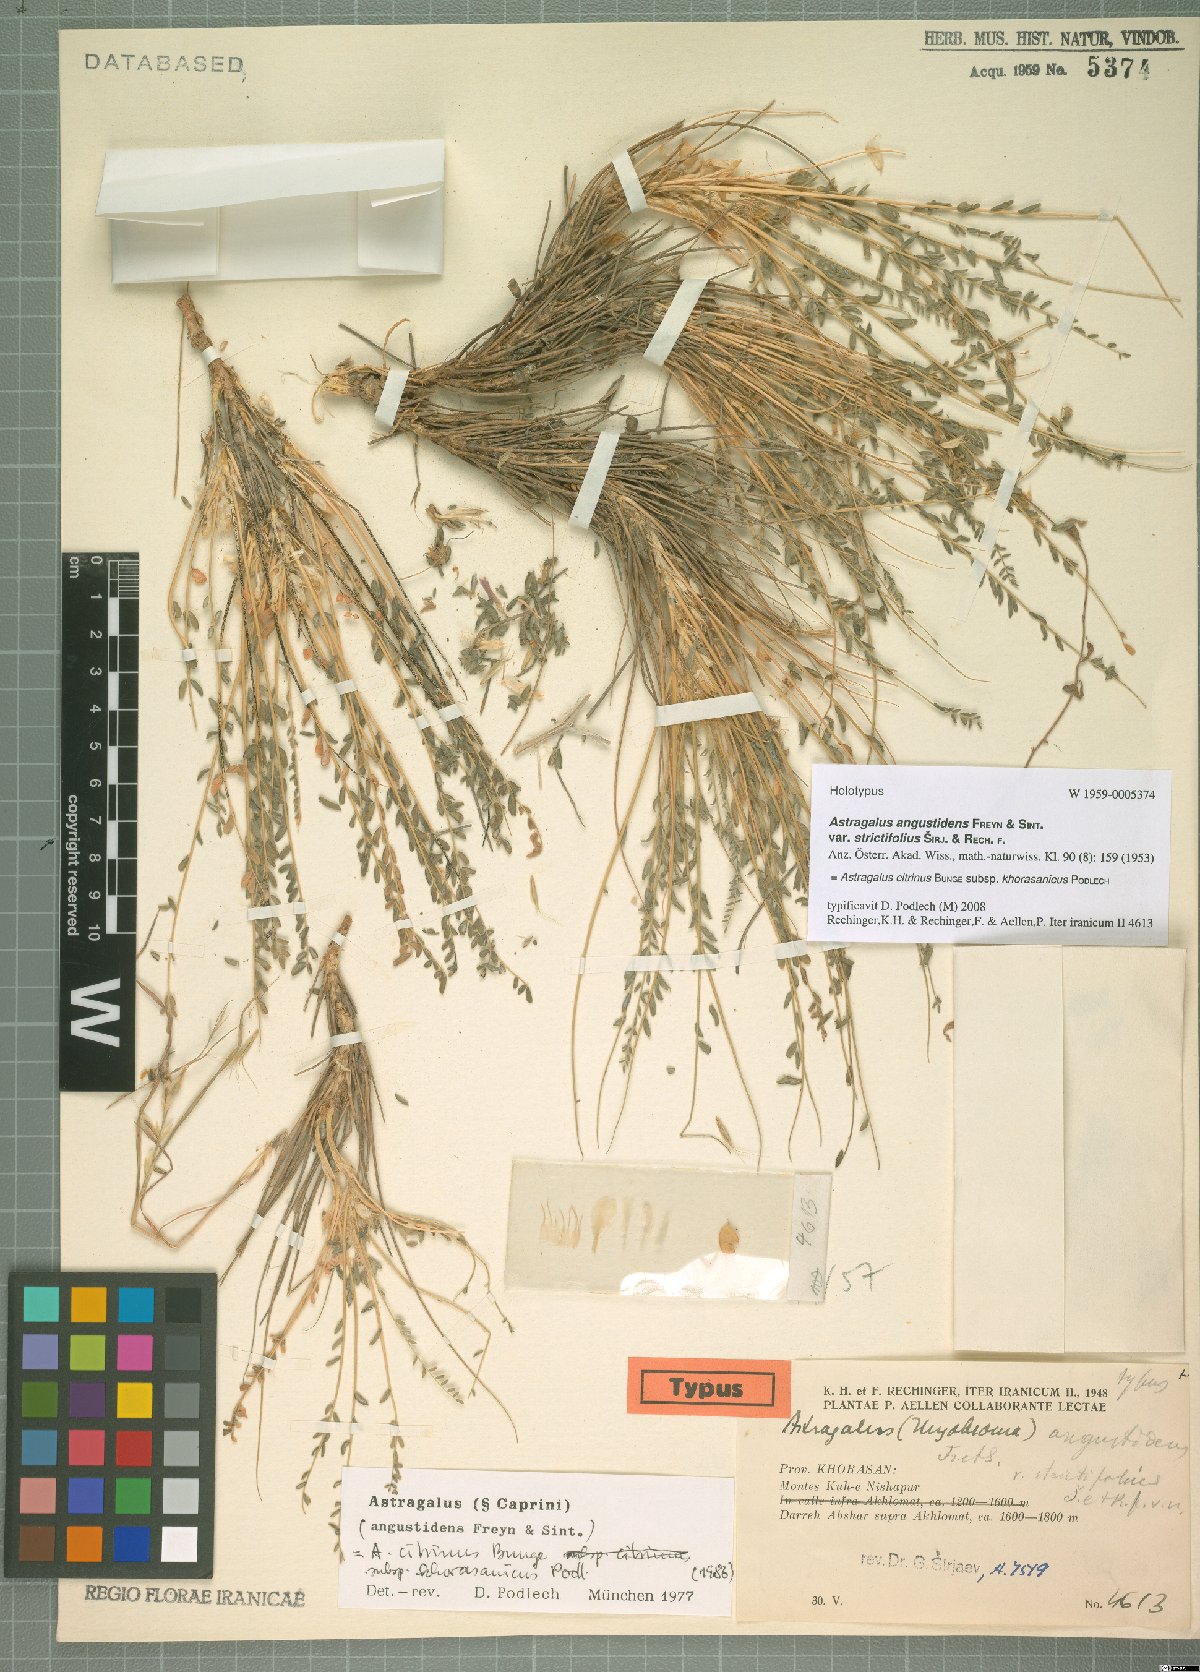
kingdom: Plantae
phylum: Tracheophyta
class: Magnoliopsida
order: Fabales
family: Fabaceae
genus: Astragalus
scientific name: Astragalus citrinus
